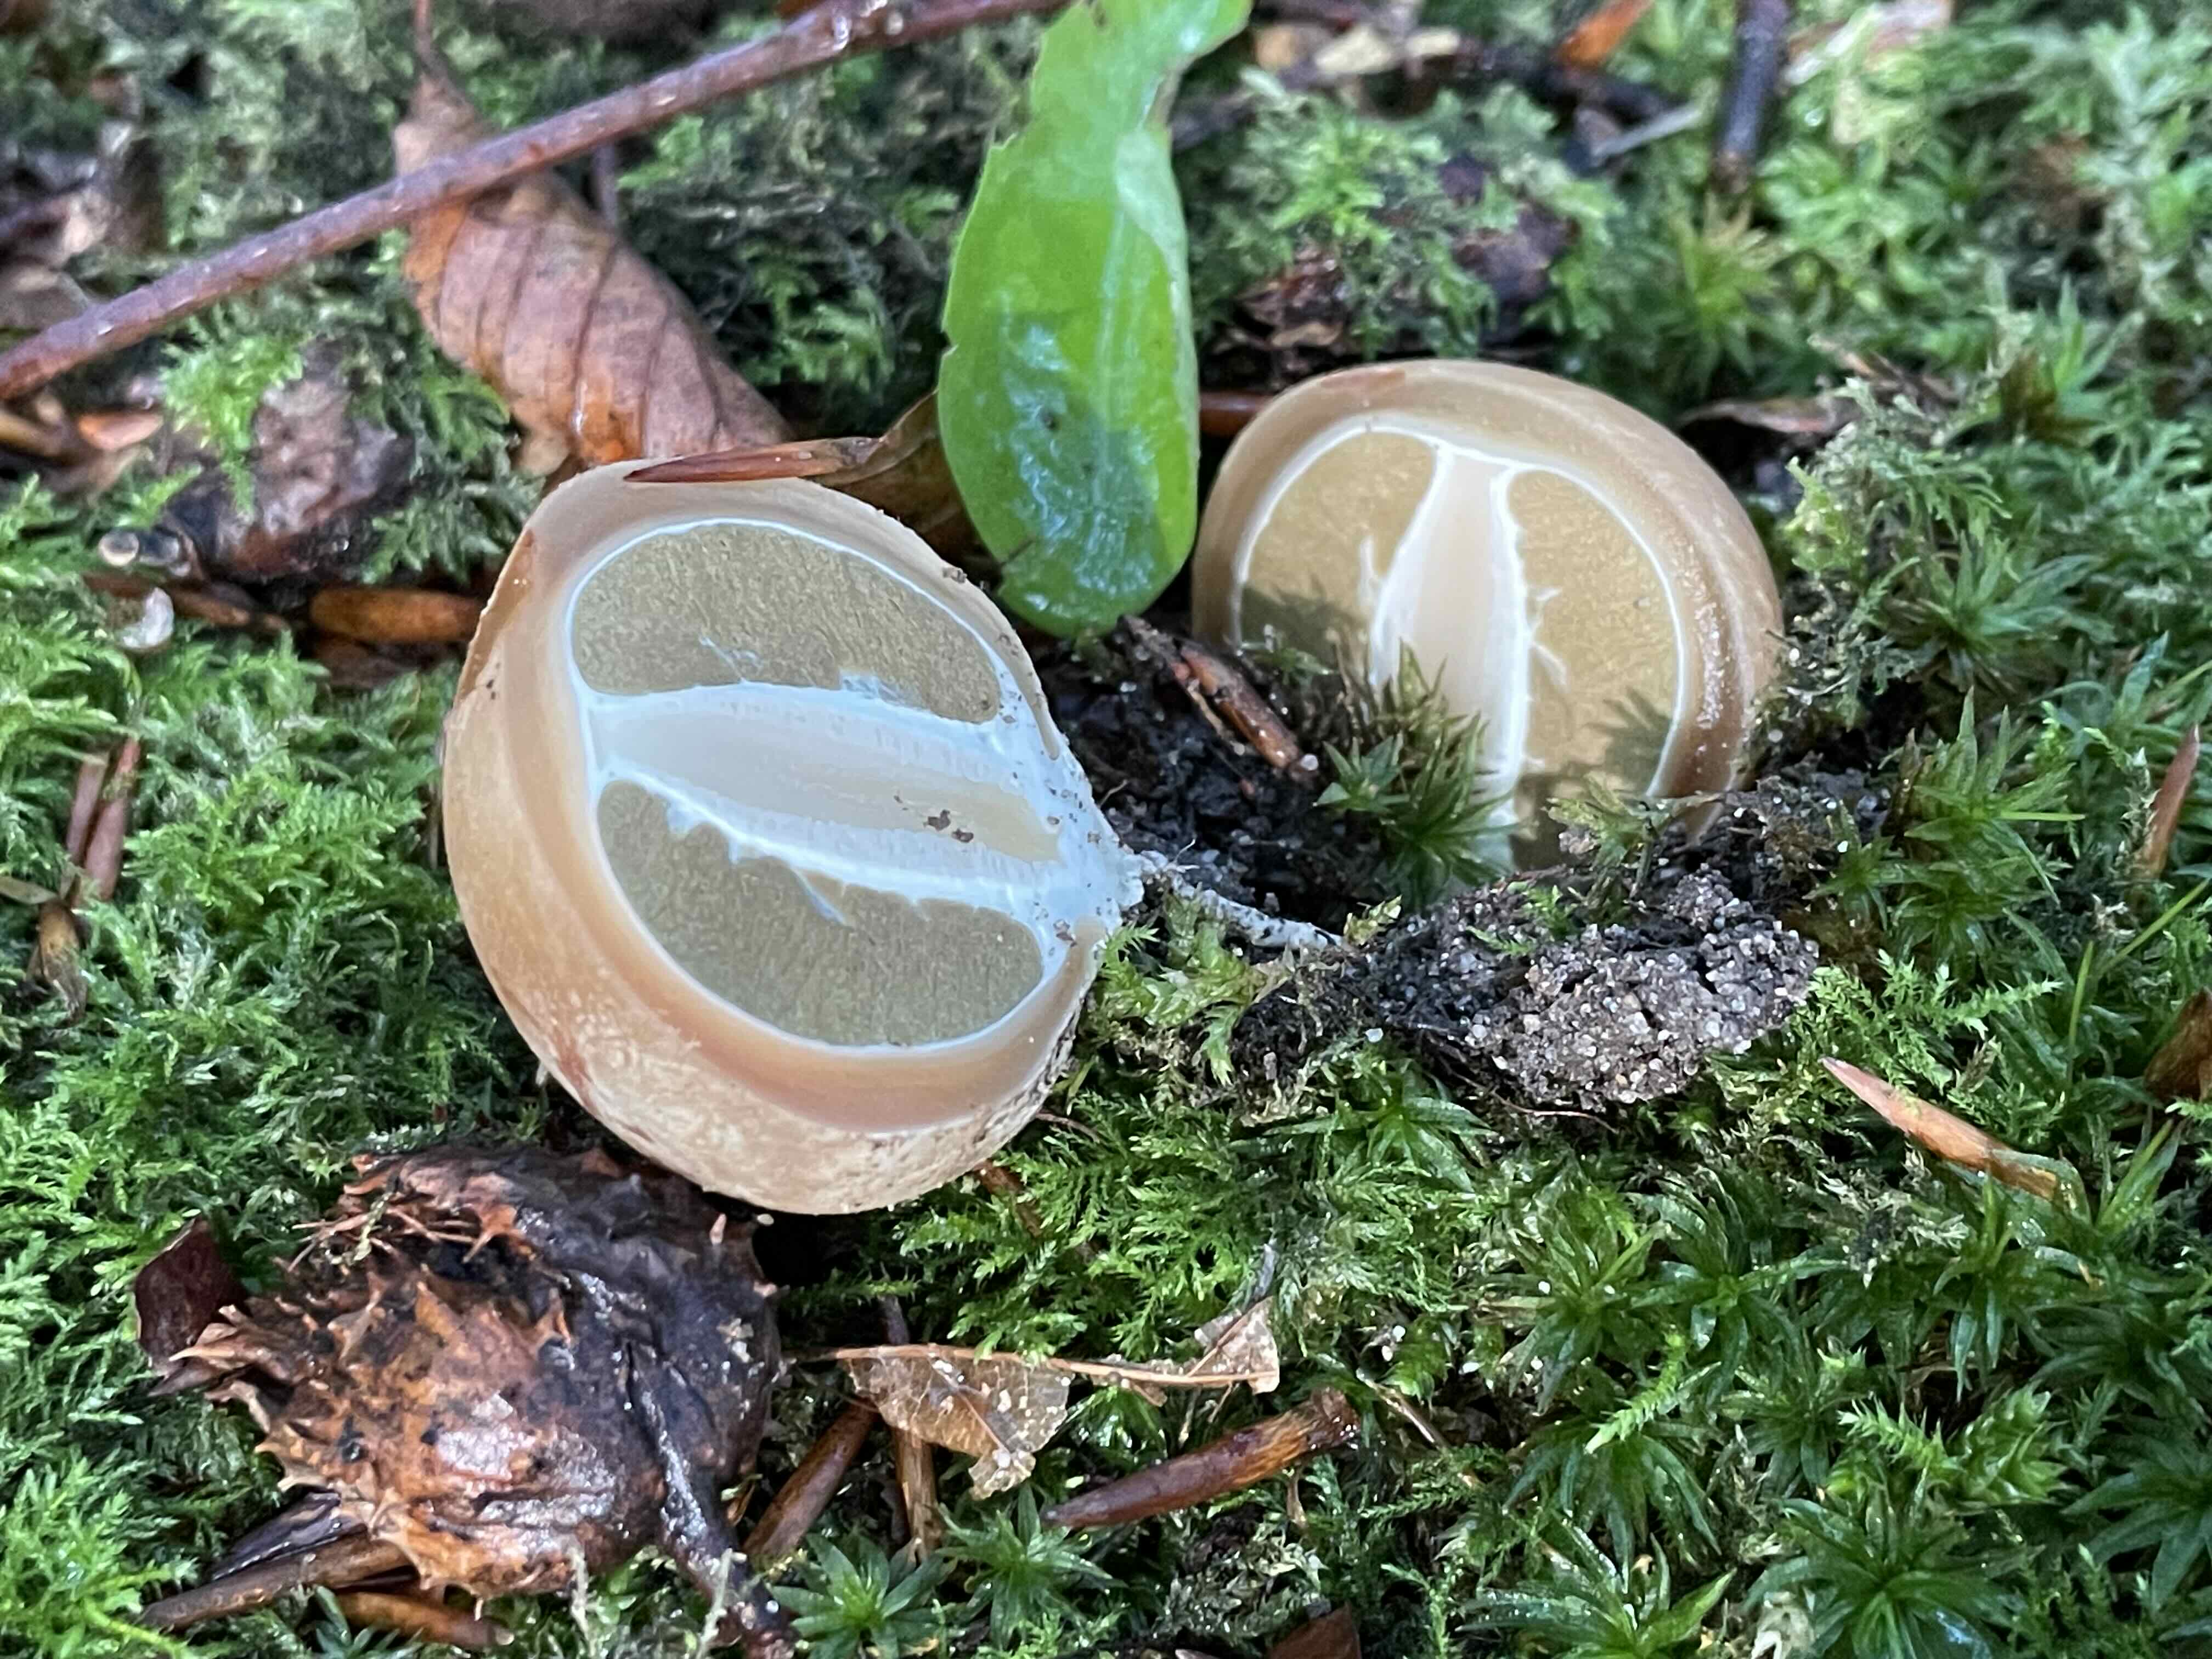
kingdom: Fungi
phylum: Basidiomycota
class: Agaricomycetes
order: Phallales
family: Phallaceae
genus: Phallus
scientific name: Phallus impudicus
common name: almindelig stinksvamp
